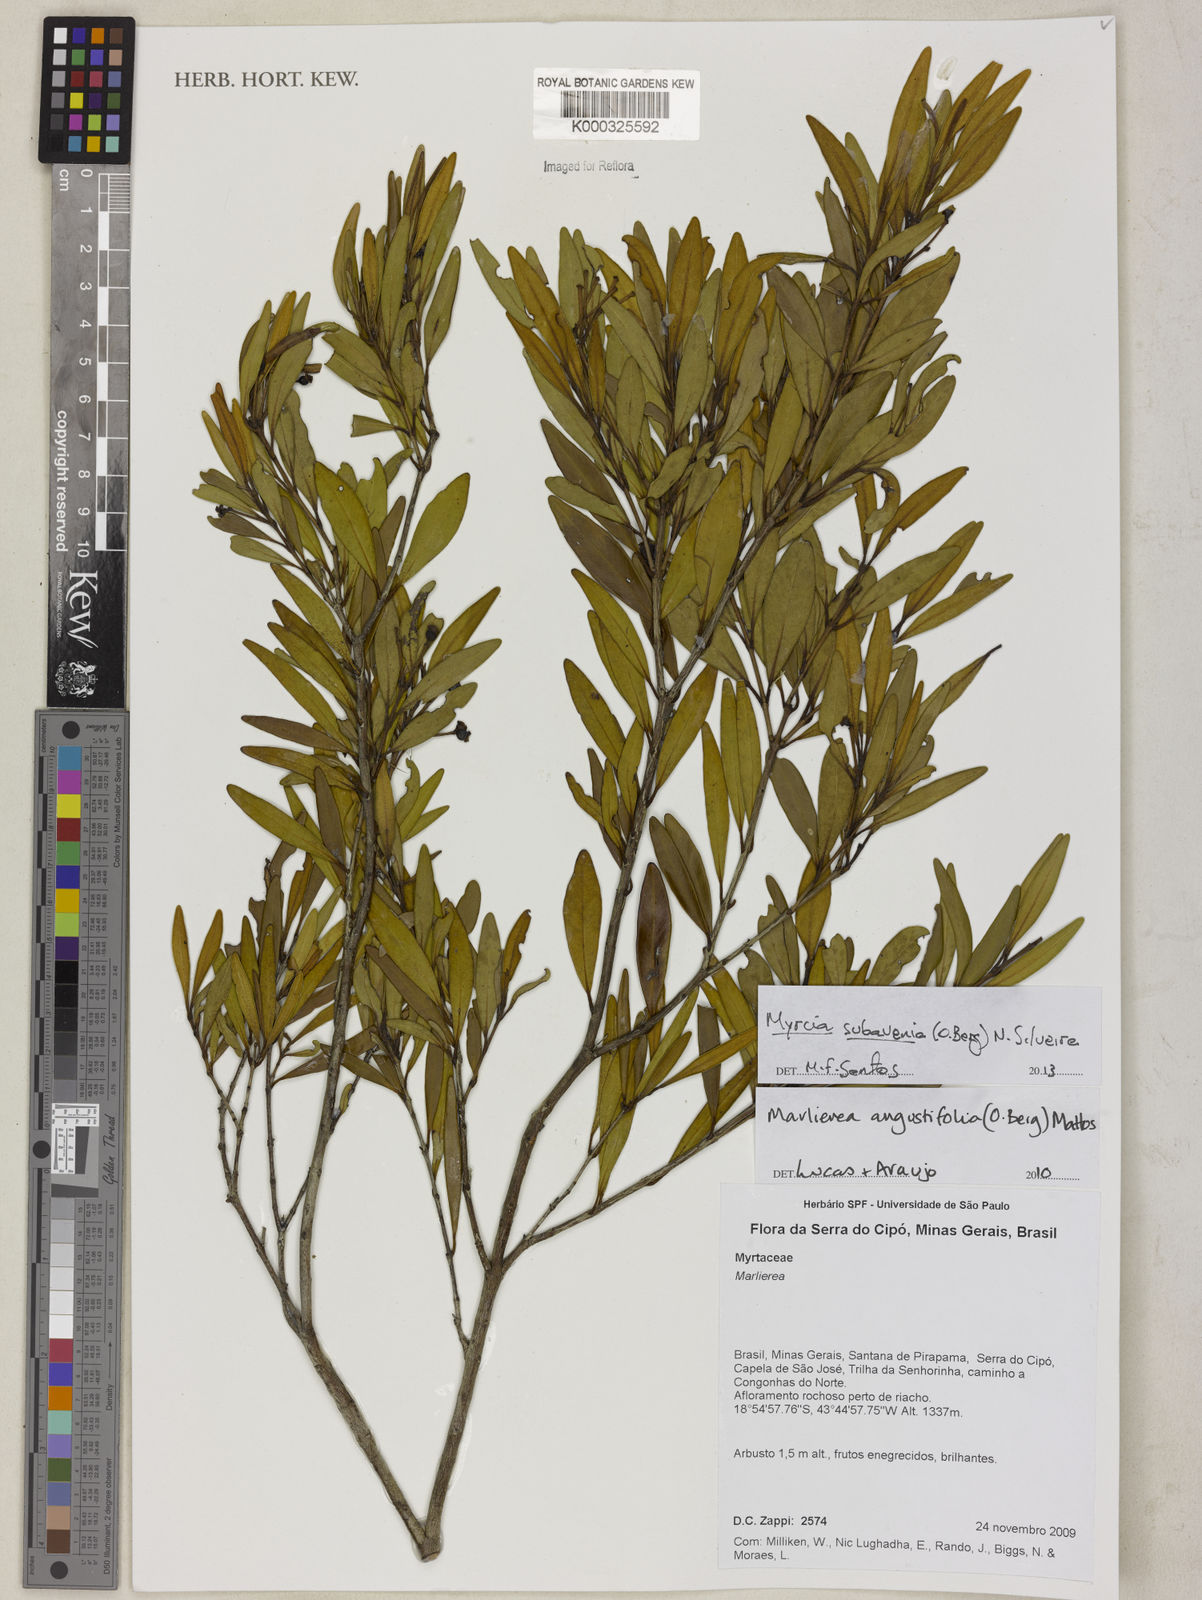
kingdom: Plantae
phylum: Tracheophyta
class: Magnoliopsida
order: Myrtales
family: Myrtaceae
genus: Myrcia
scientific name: Myrcia subavenia
